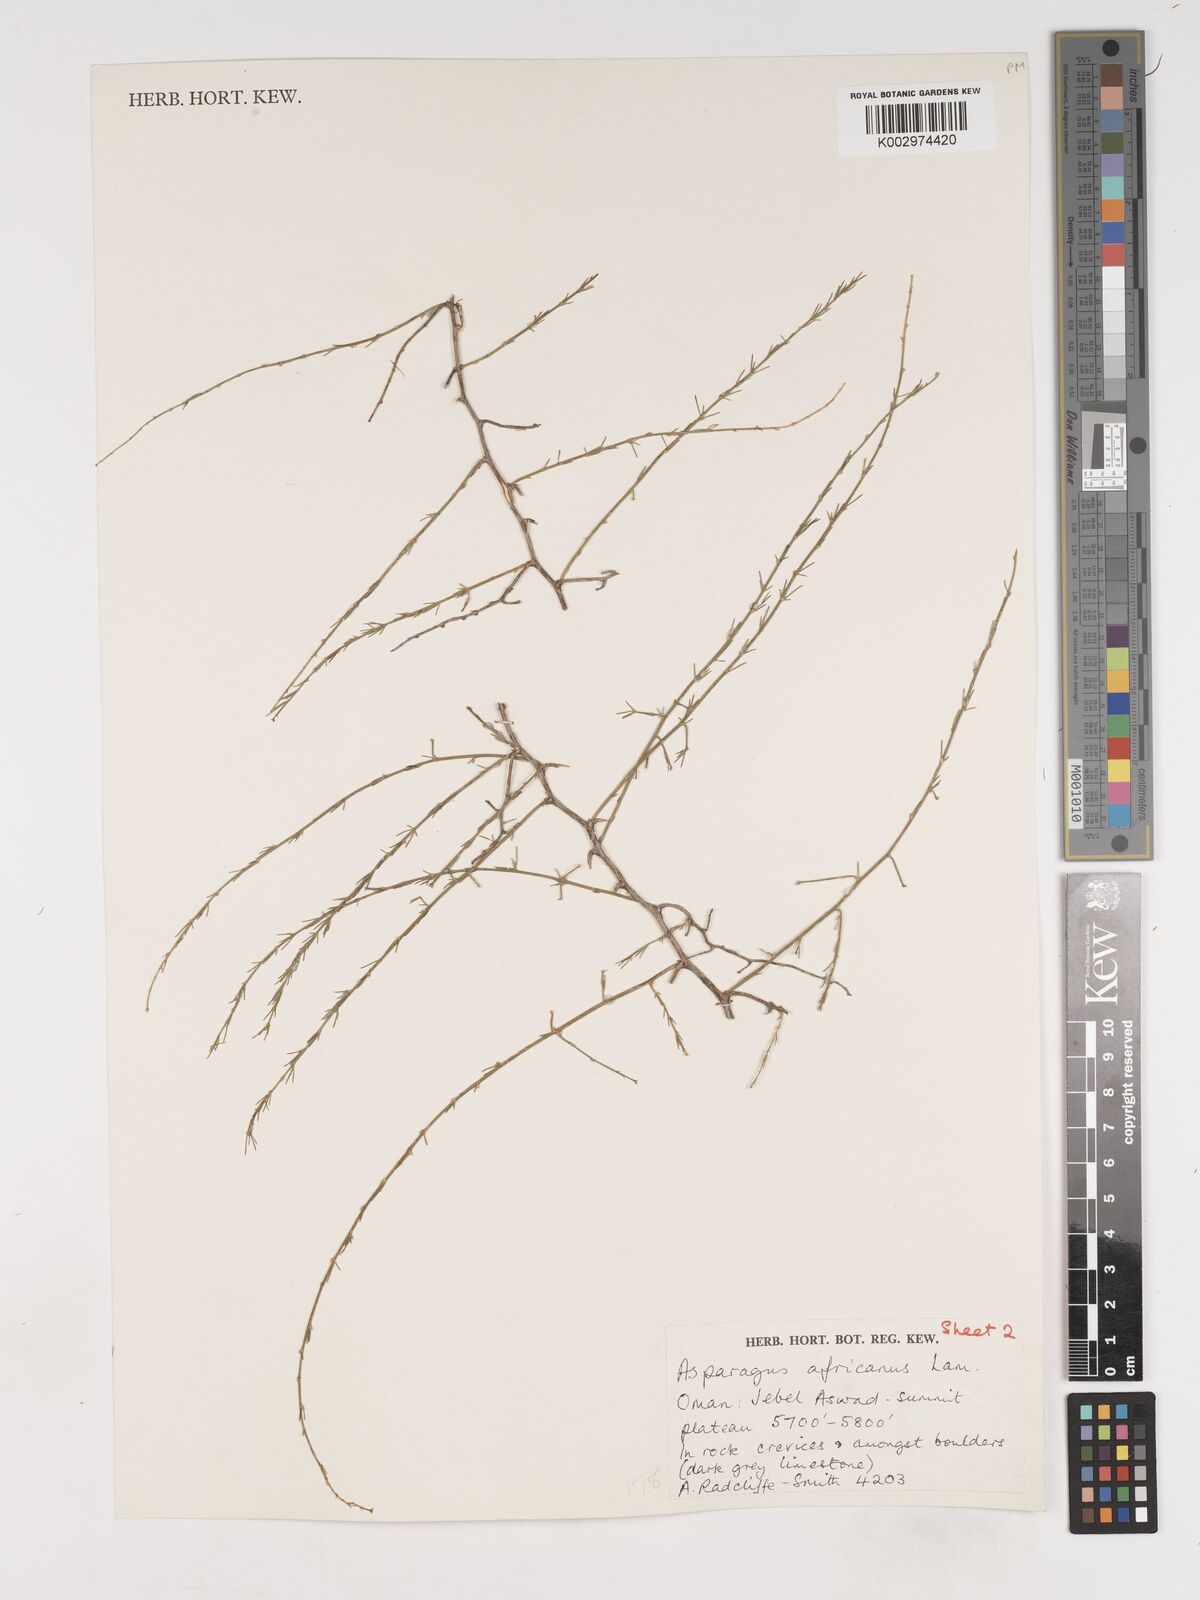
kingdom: Plantae
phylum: Tracheophyta
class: Liliopsida
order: Asparagales
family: Asparagaceae
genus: Asparagus
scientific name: Asparagus africanus
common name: Asparagus-fern
